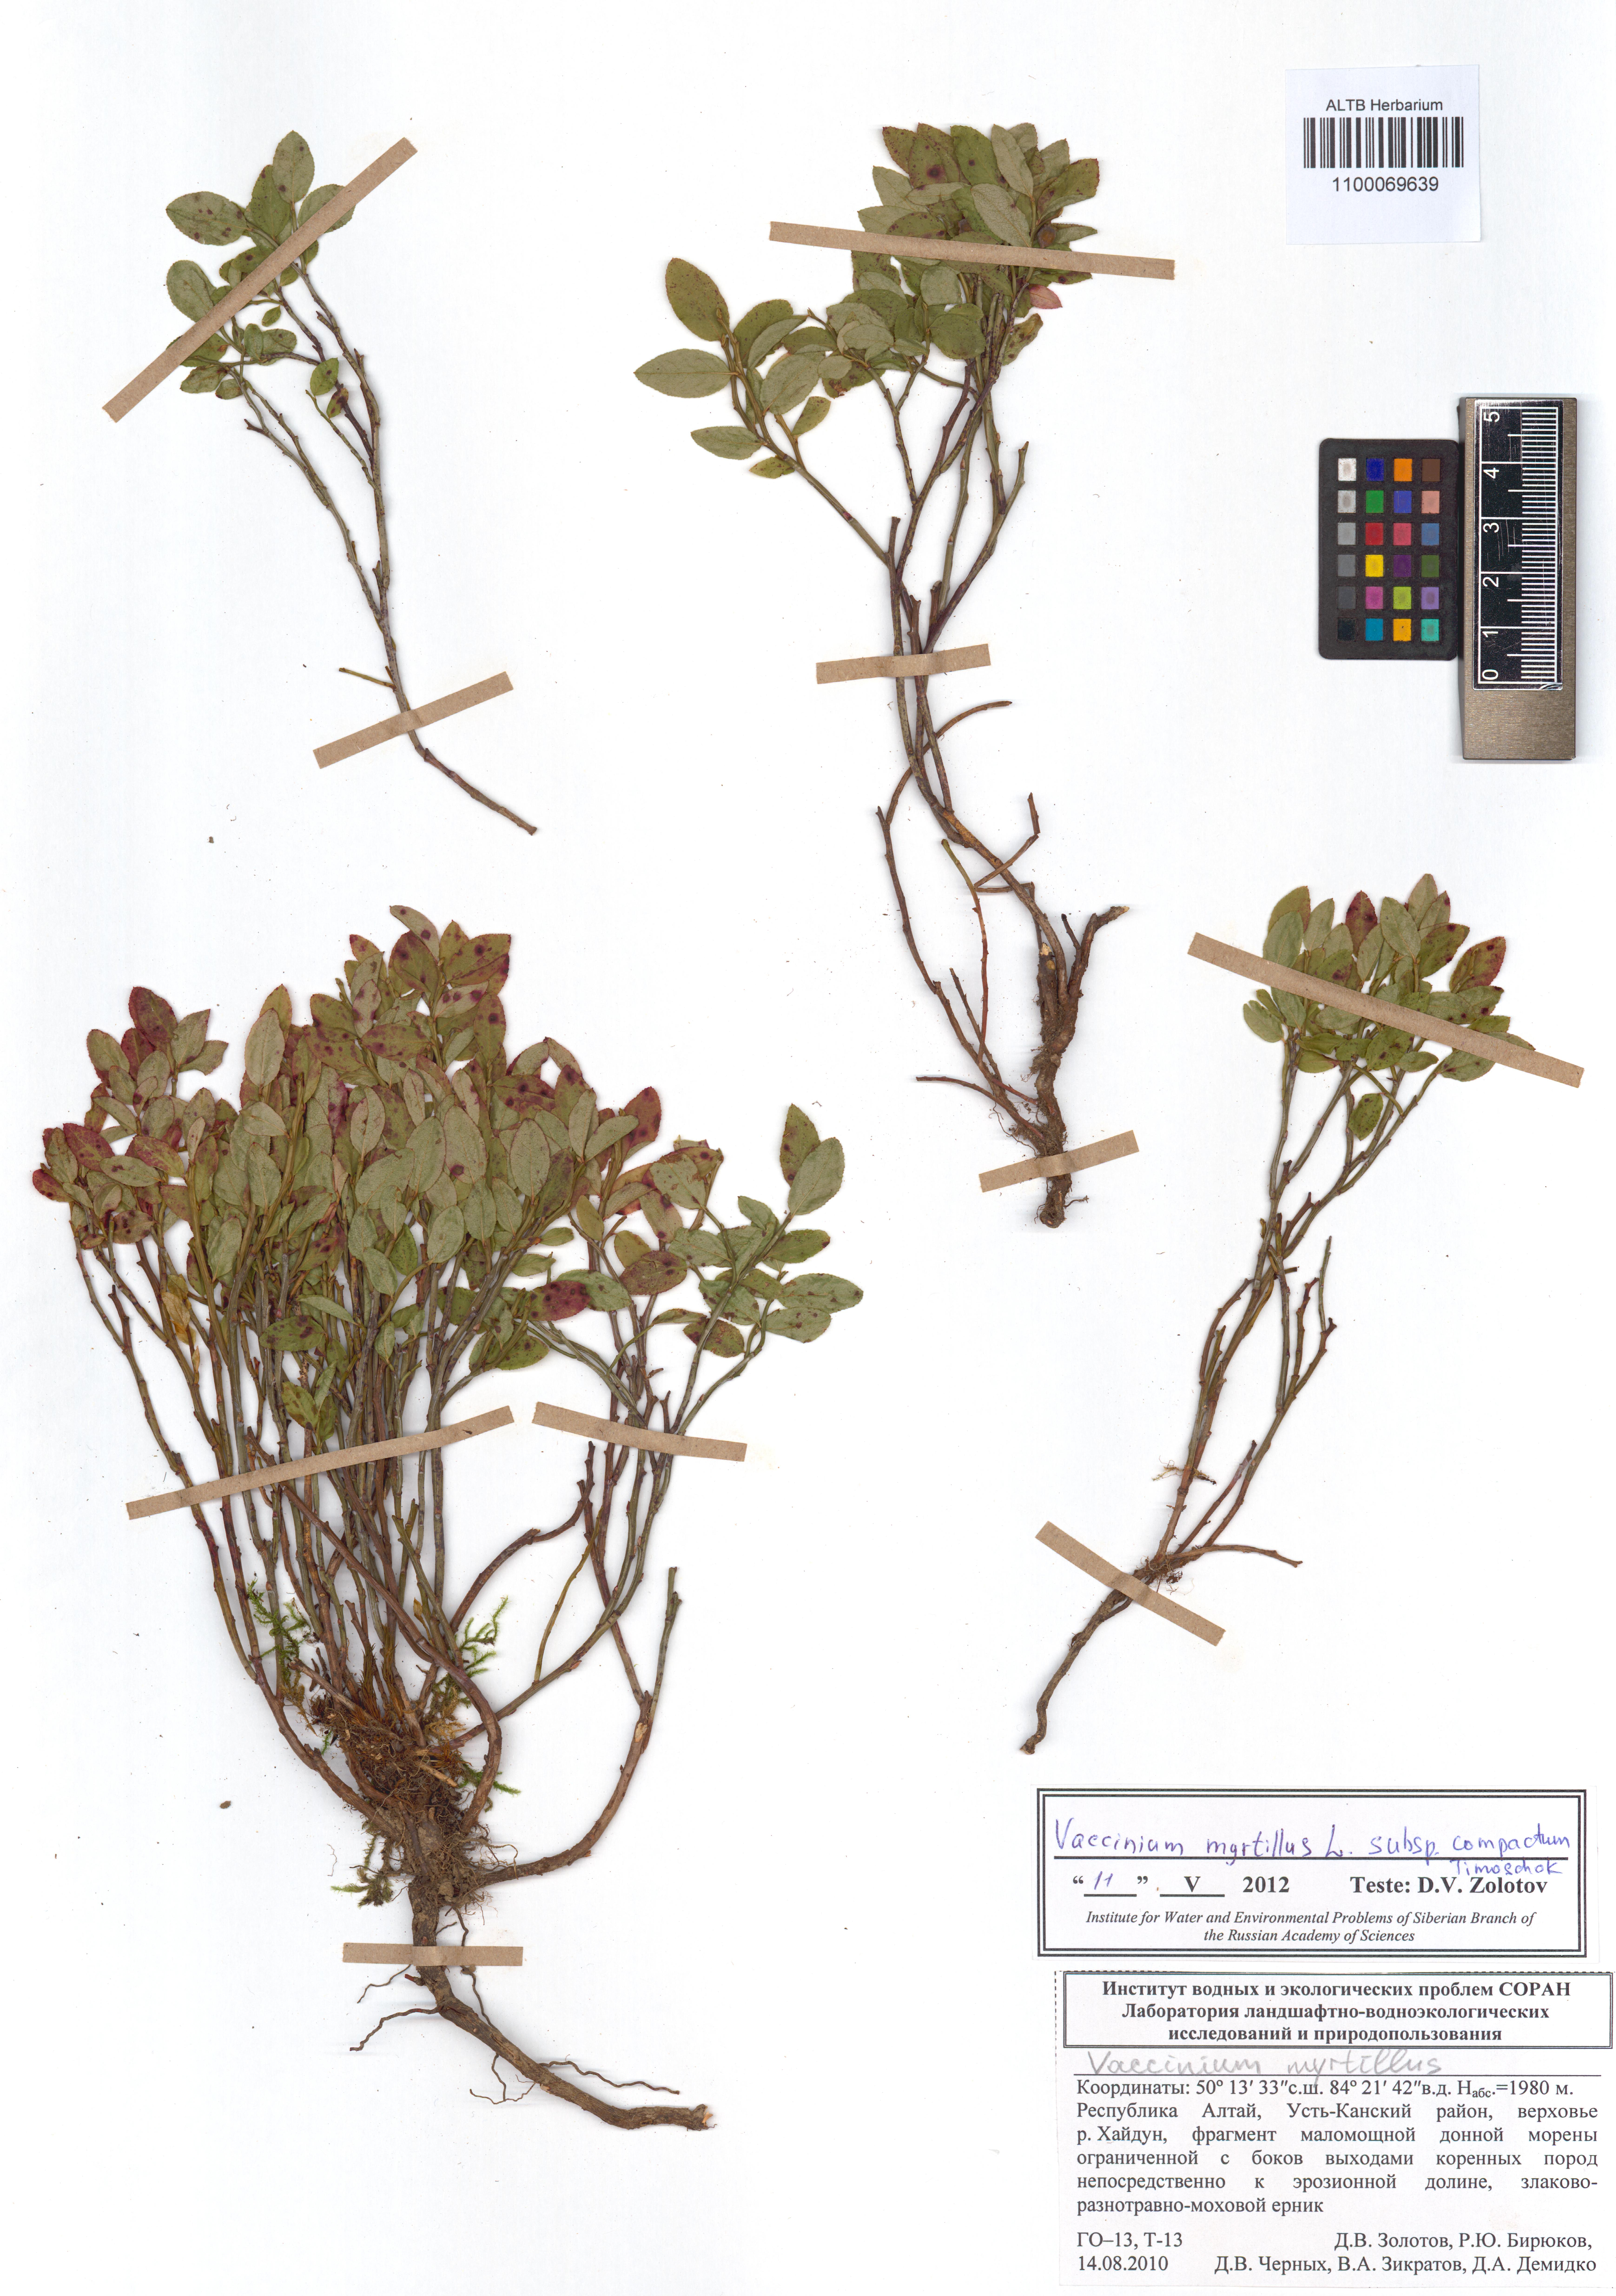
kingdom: Plantae
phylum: Tracheophyta
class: Magnoliopsida
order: Ericales
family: Ericaceae
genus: Vaccinium
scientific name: Vaccinium myrtillus
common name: Bilberry
